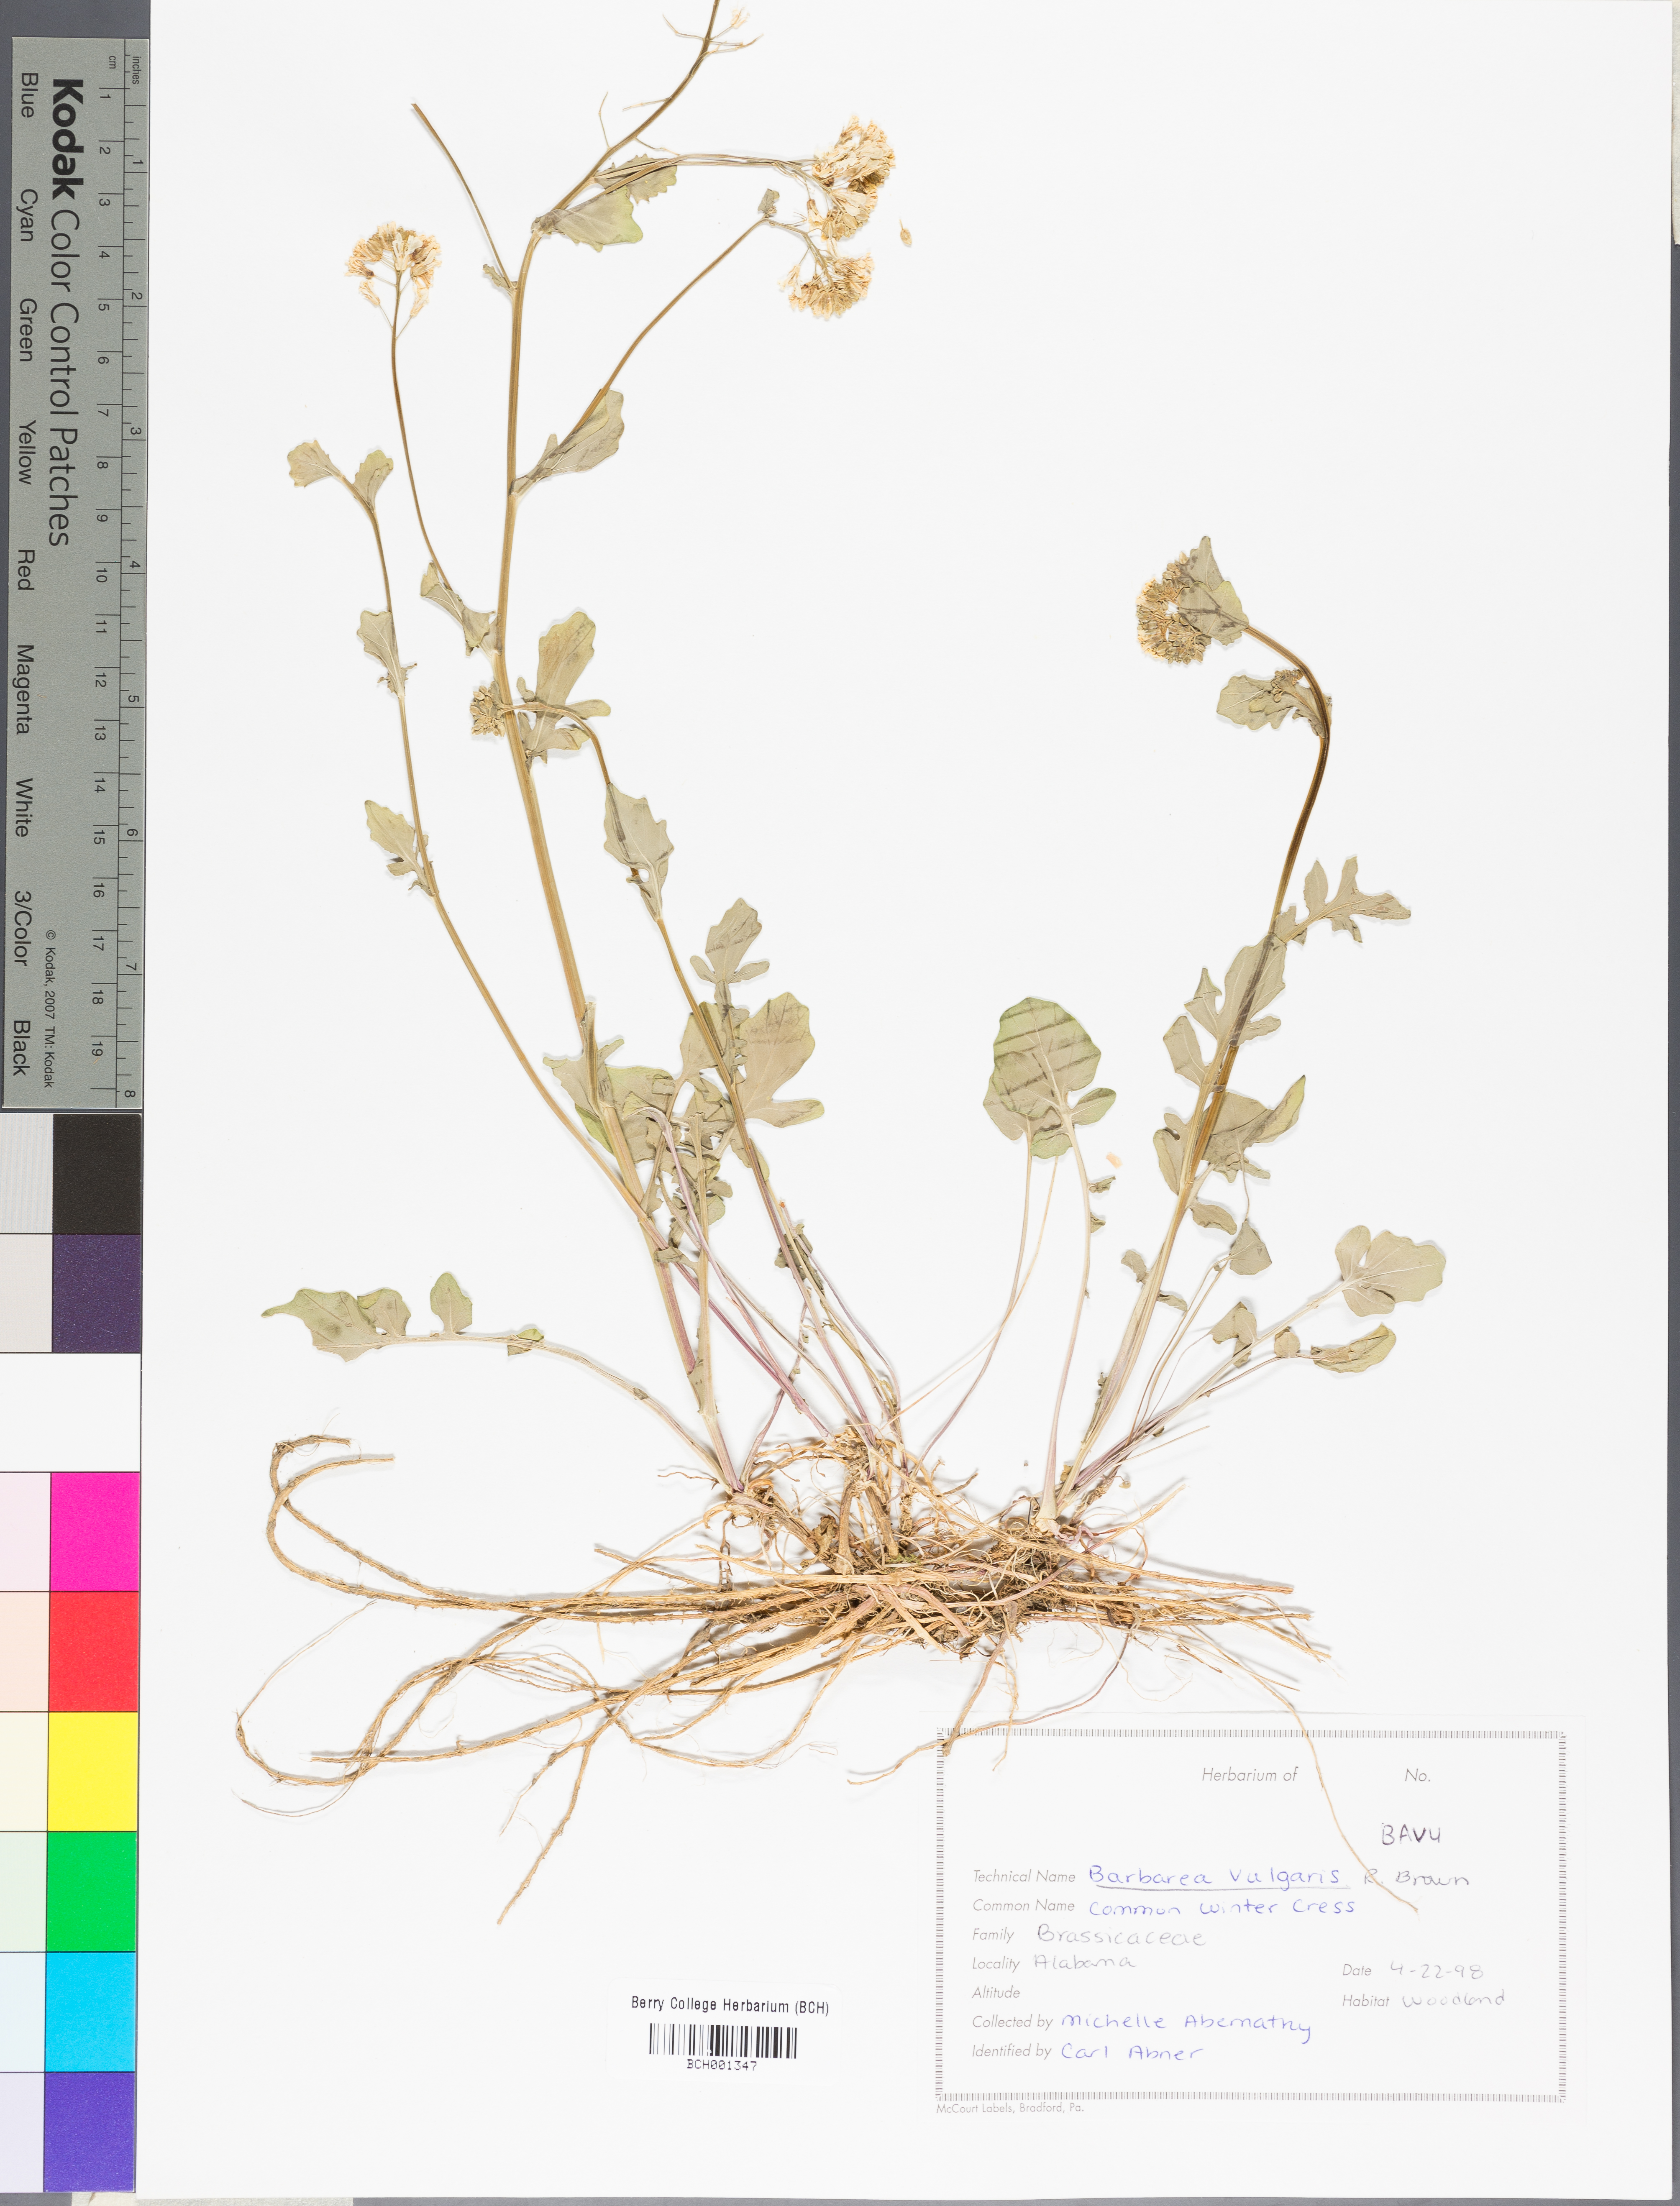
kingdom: Plantae
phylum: Tracheophyta
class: Magnoliopsida
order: Brassicales
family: Brassicaceae
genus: Barbarea
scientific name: Barbarea vulgaris
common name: Cressy-greens
